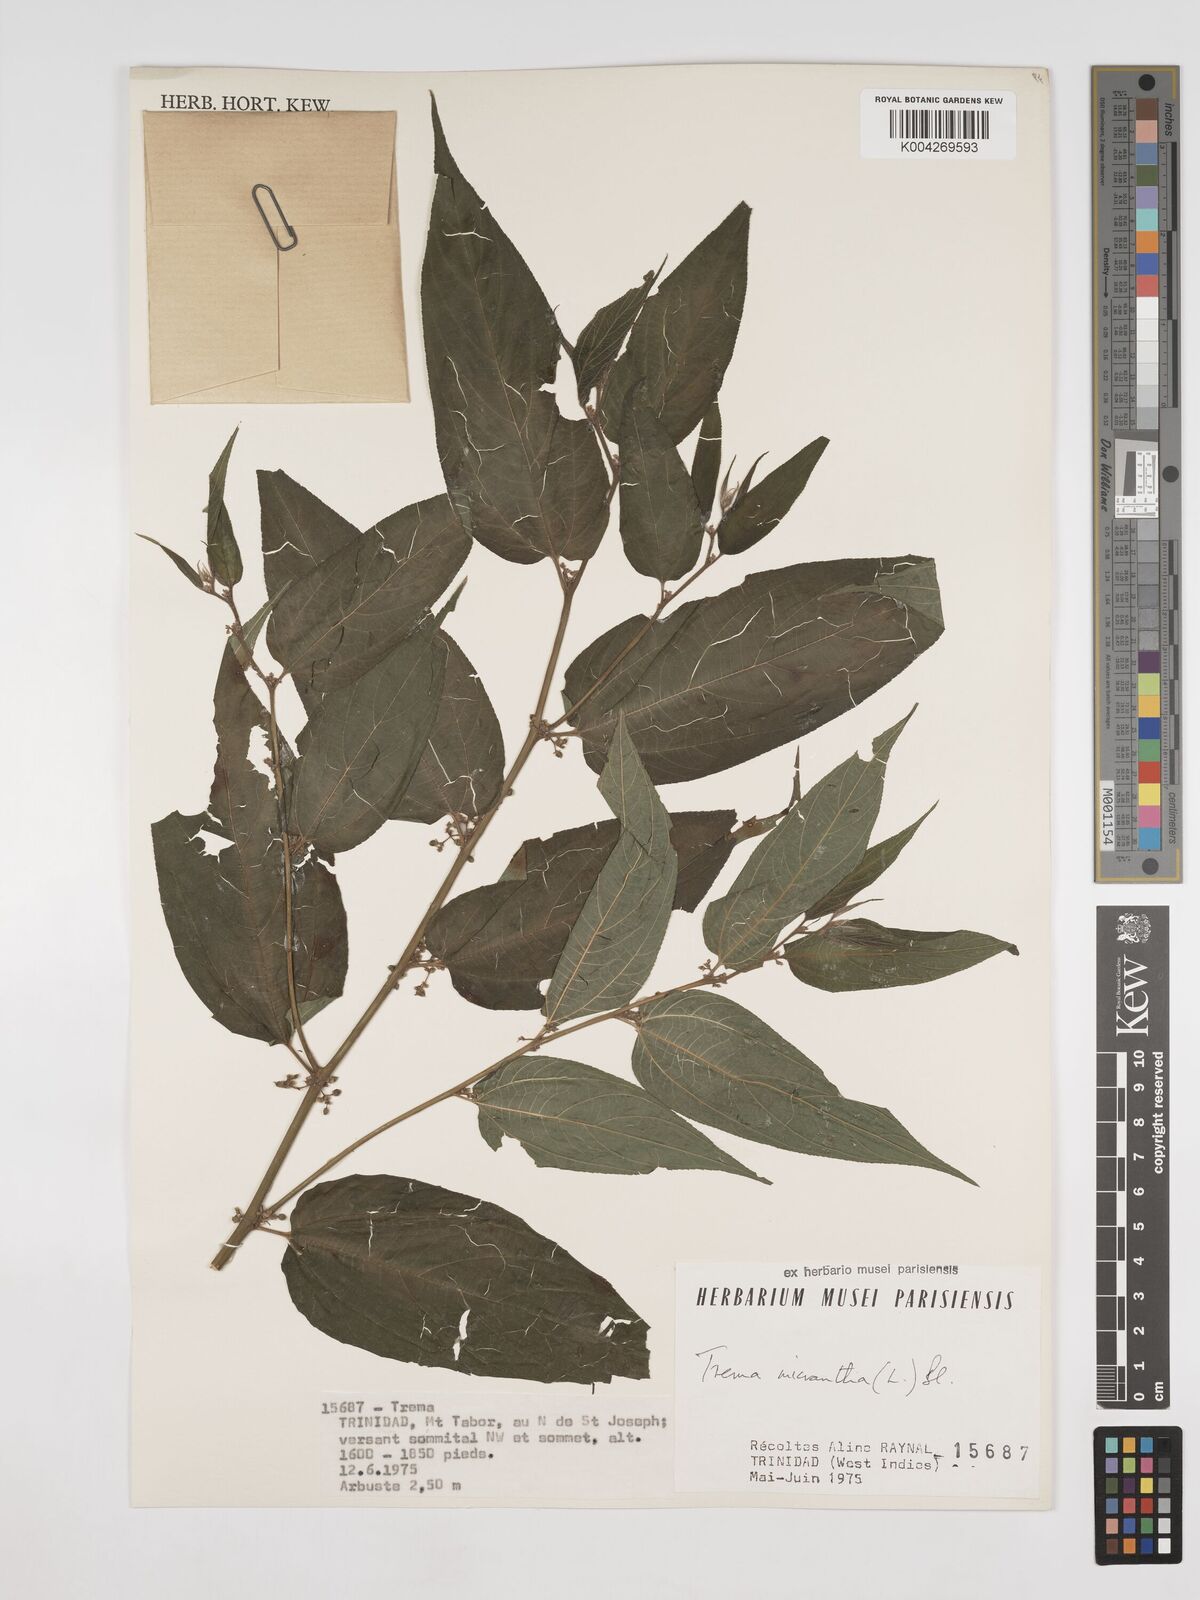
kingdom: Plantae
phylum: Tracheophyta
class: Magnoliopsida
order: Rosales
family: Cannabaceae
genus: Trema
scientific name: Trema micranthum
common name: Jamaican nettletree
